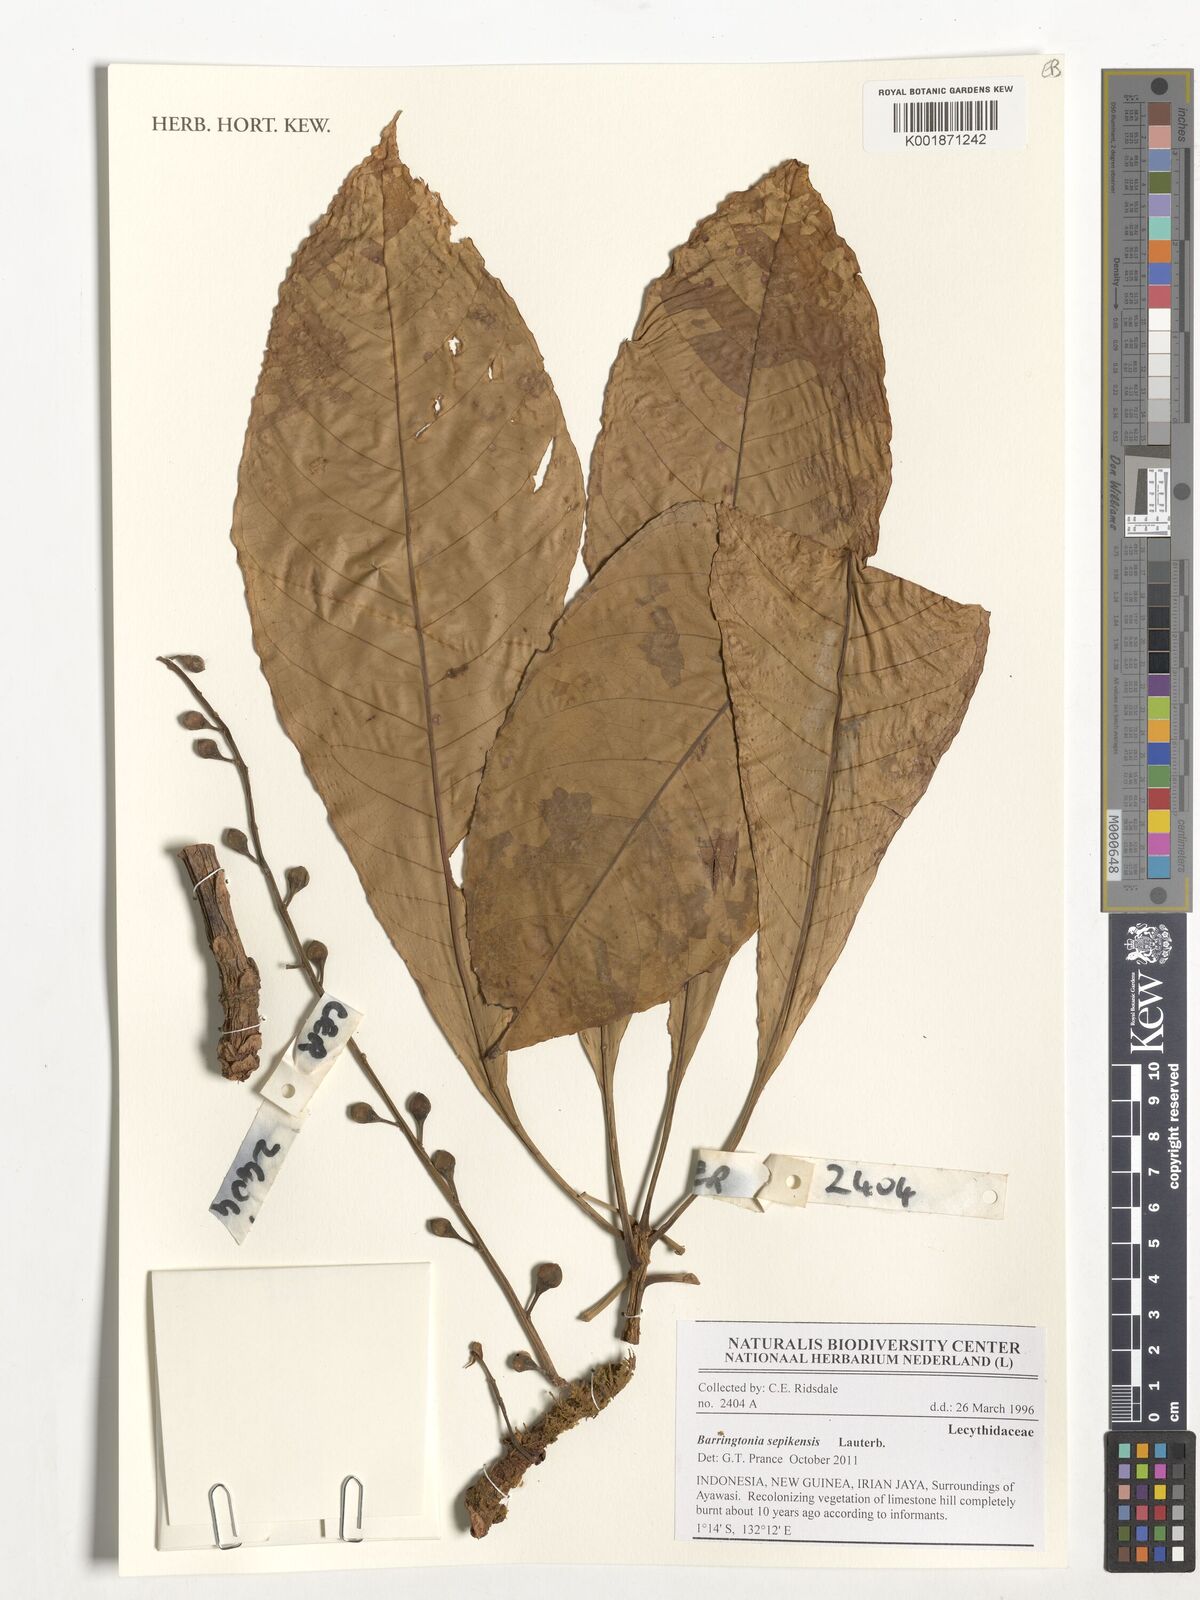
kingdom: Plantae
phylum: Tracheophyta
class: Magnoliopsida
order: Ericales
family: Lecythidaceae
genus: Barringtonia
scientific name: Barringtonia apiculata
